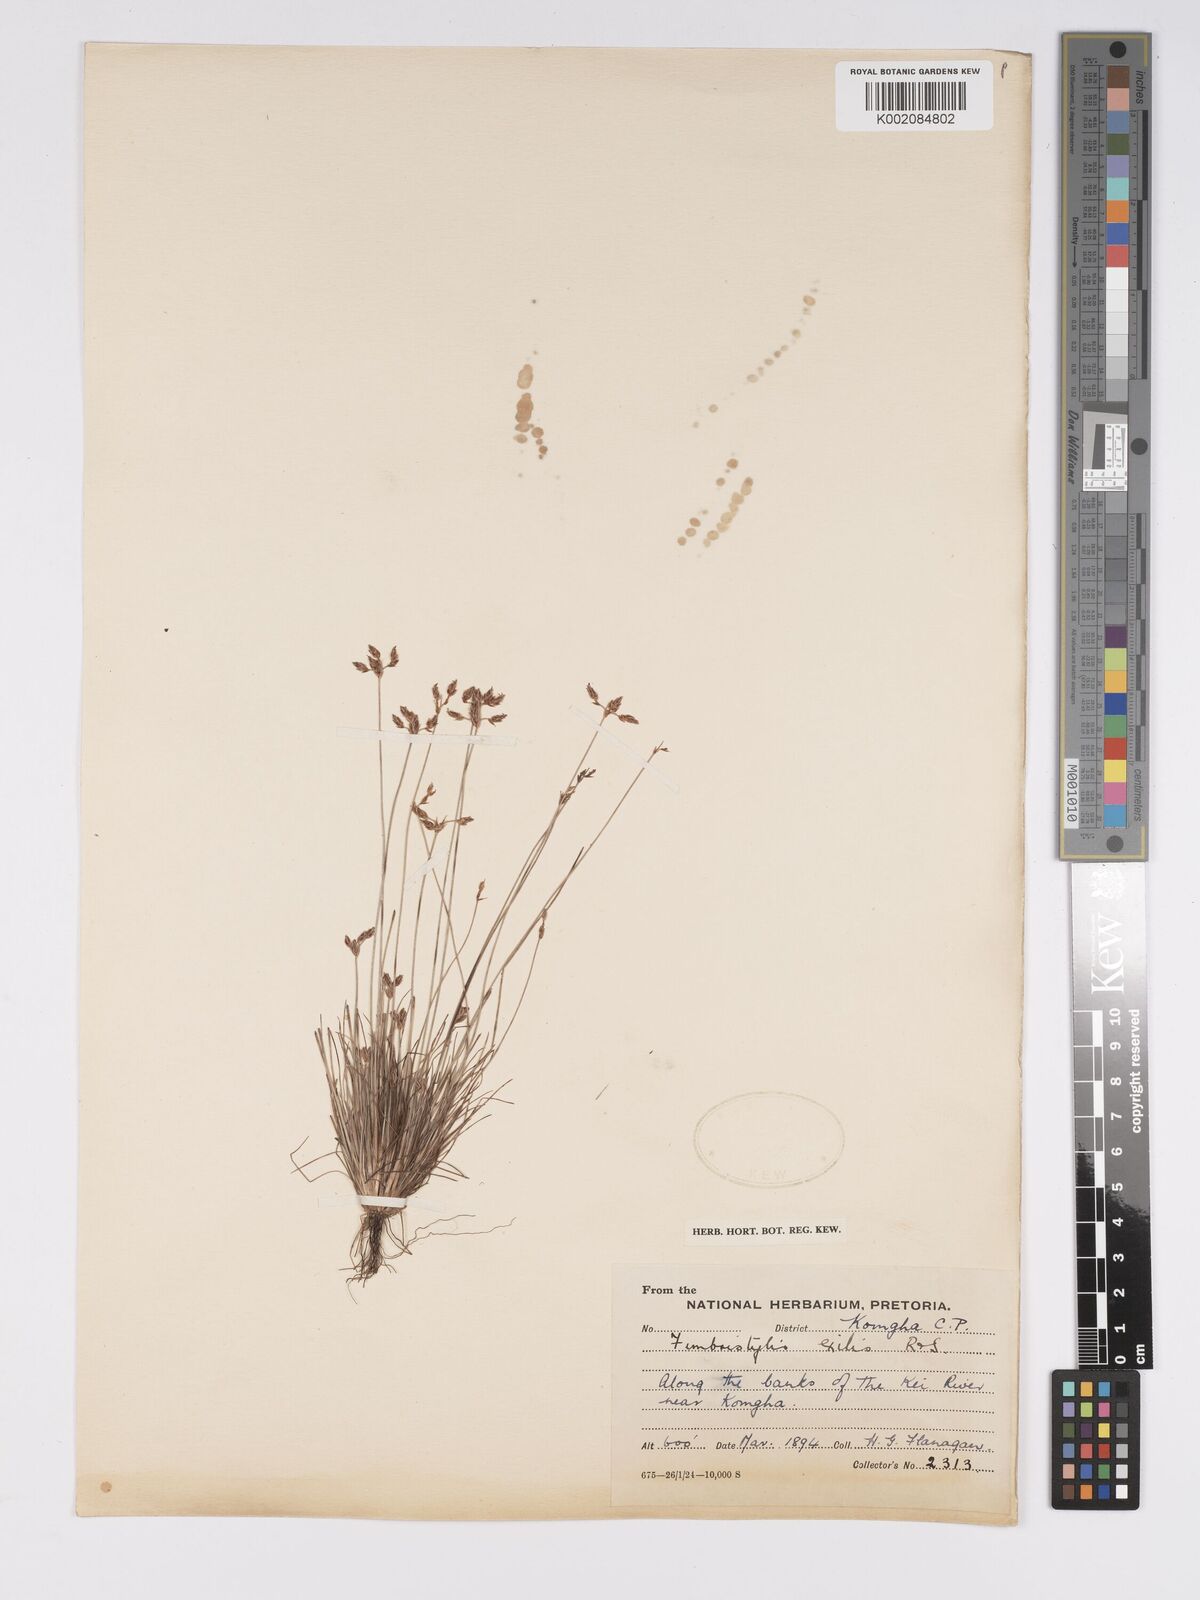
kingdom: Plantae
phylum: Tracheophyta
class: Liliopsida
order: Poales
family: Cyperaceae
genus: Bulbostylis
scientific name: Bulbostylis hispidula
